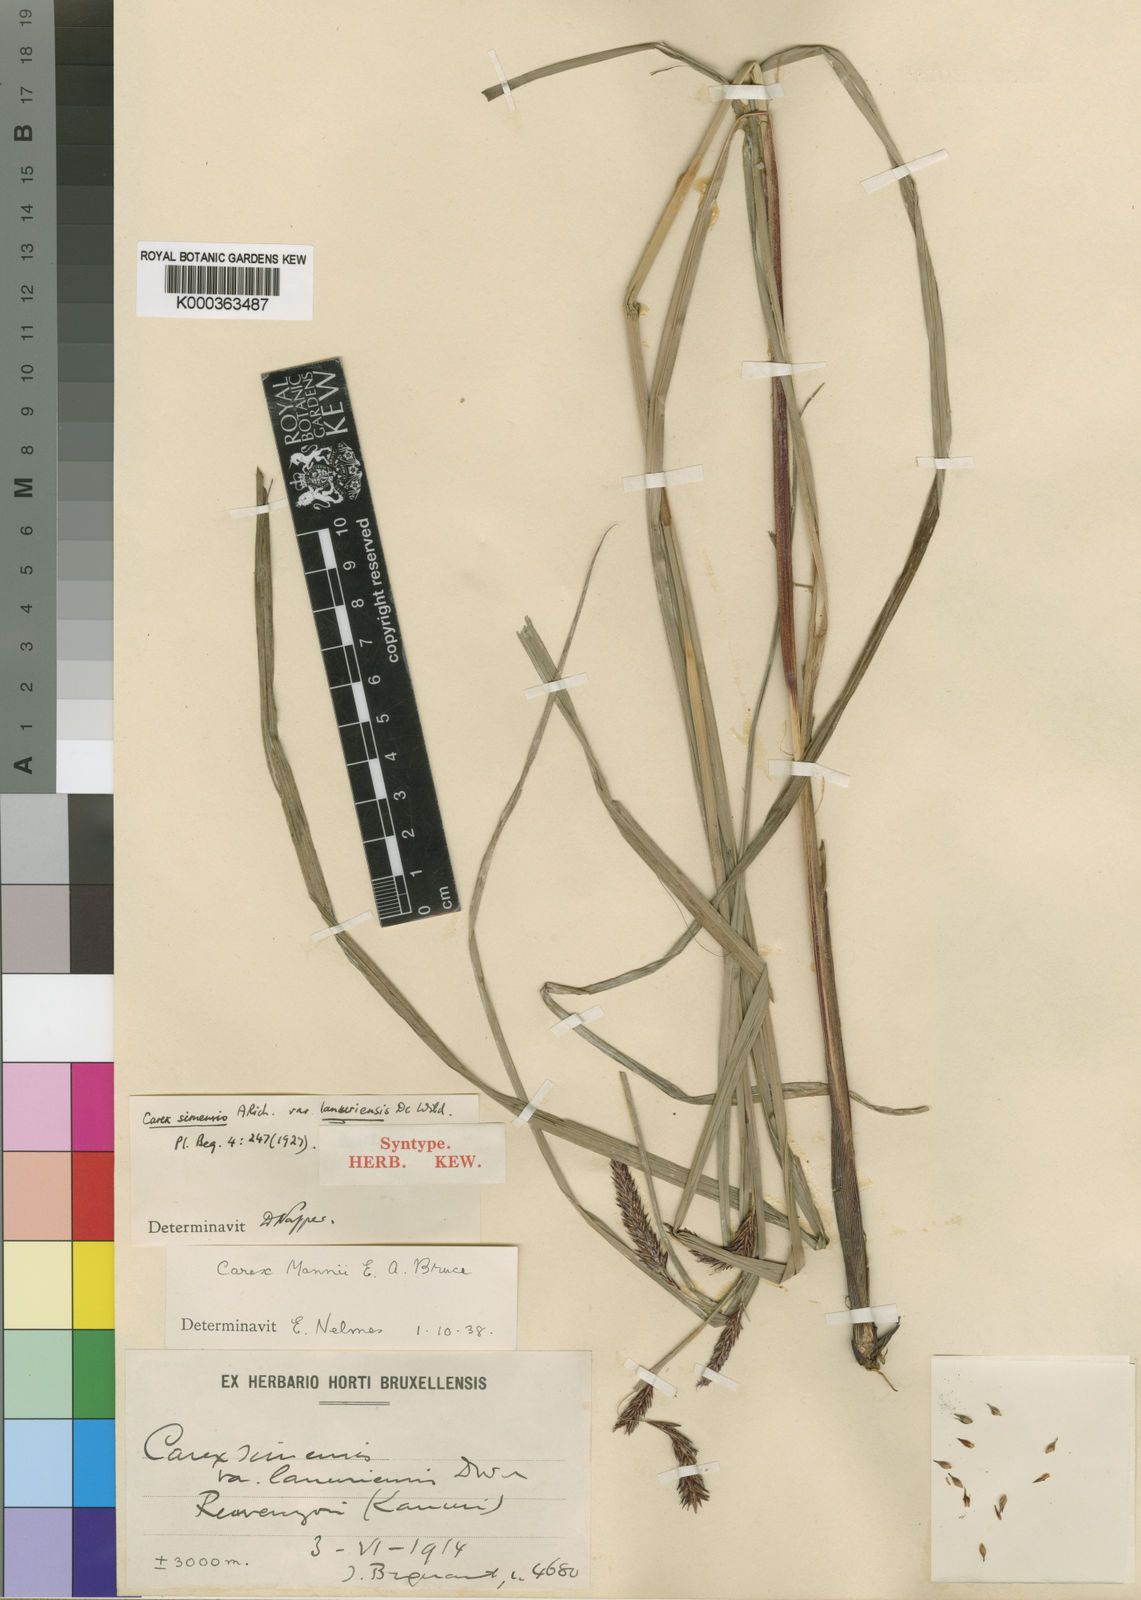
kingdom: Plantae
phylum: Tracheophyta
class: Liliopsida
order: Poales
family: Cyperaceae
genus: Carex
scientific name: Carex simensis
